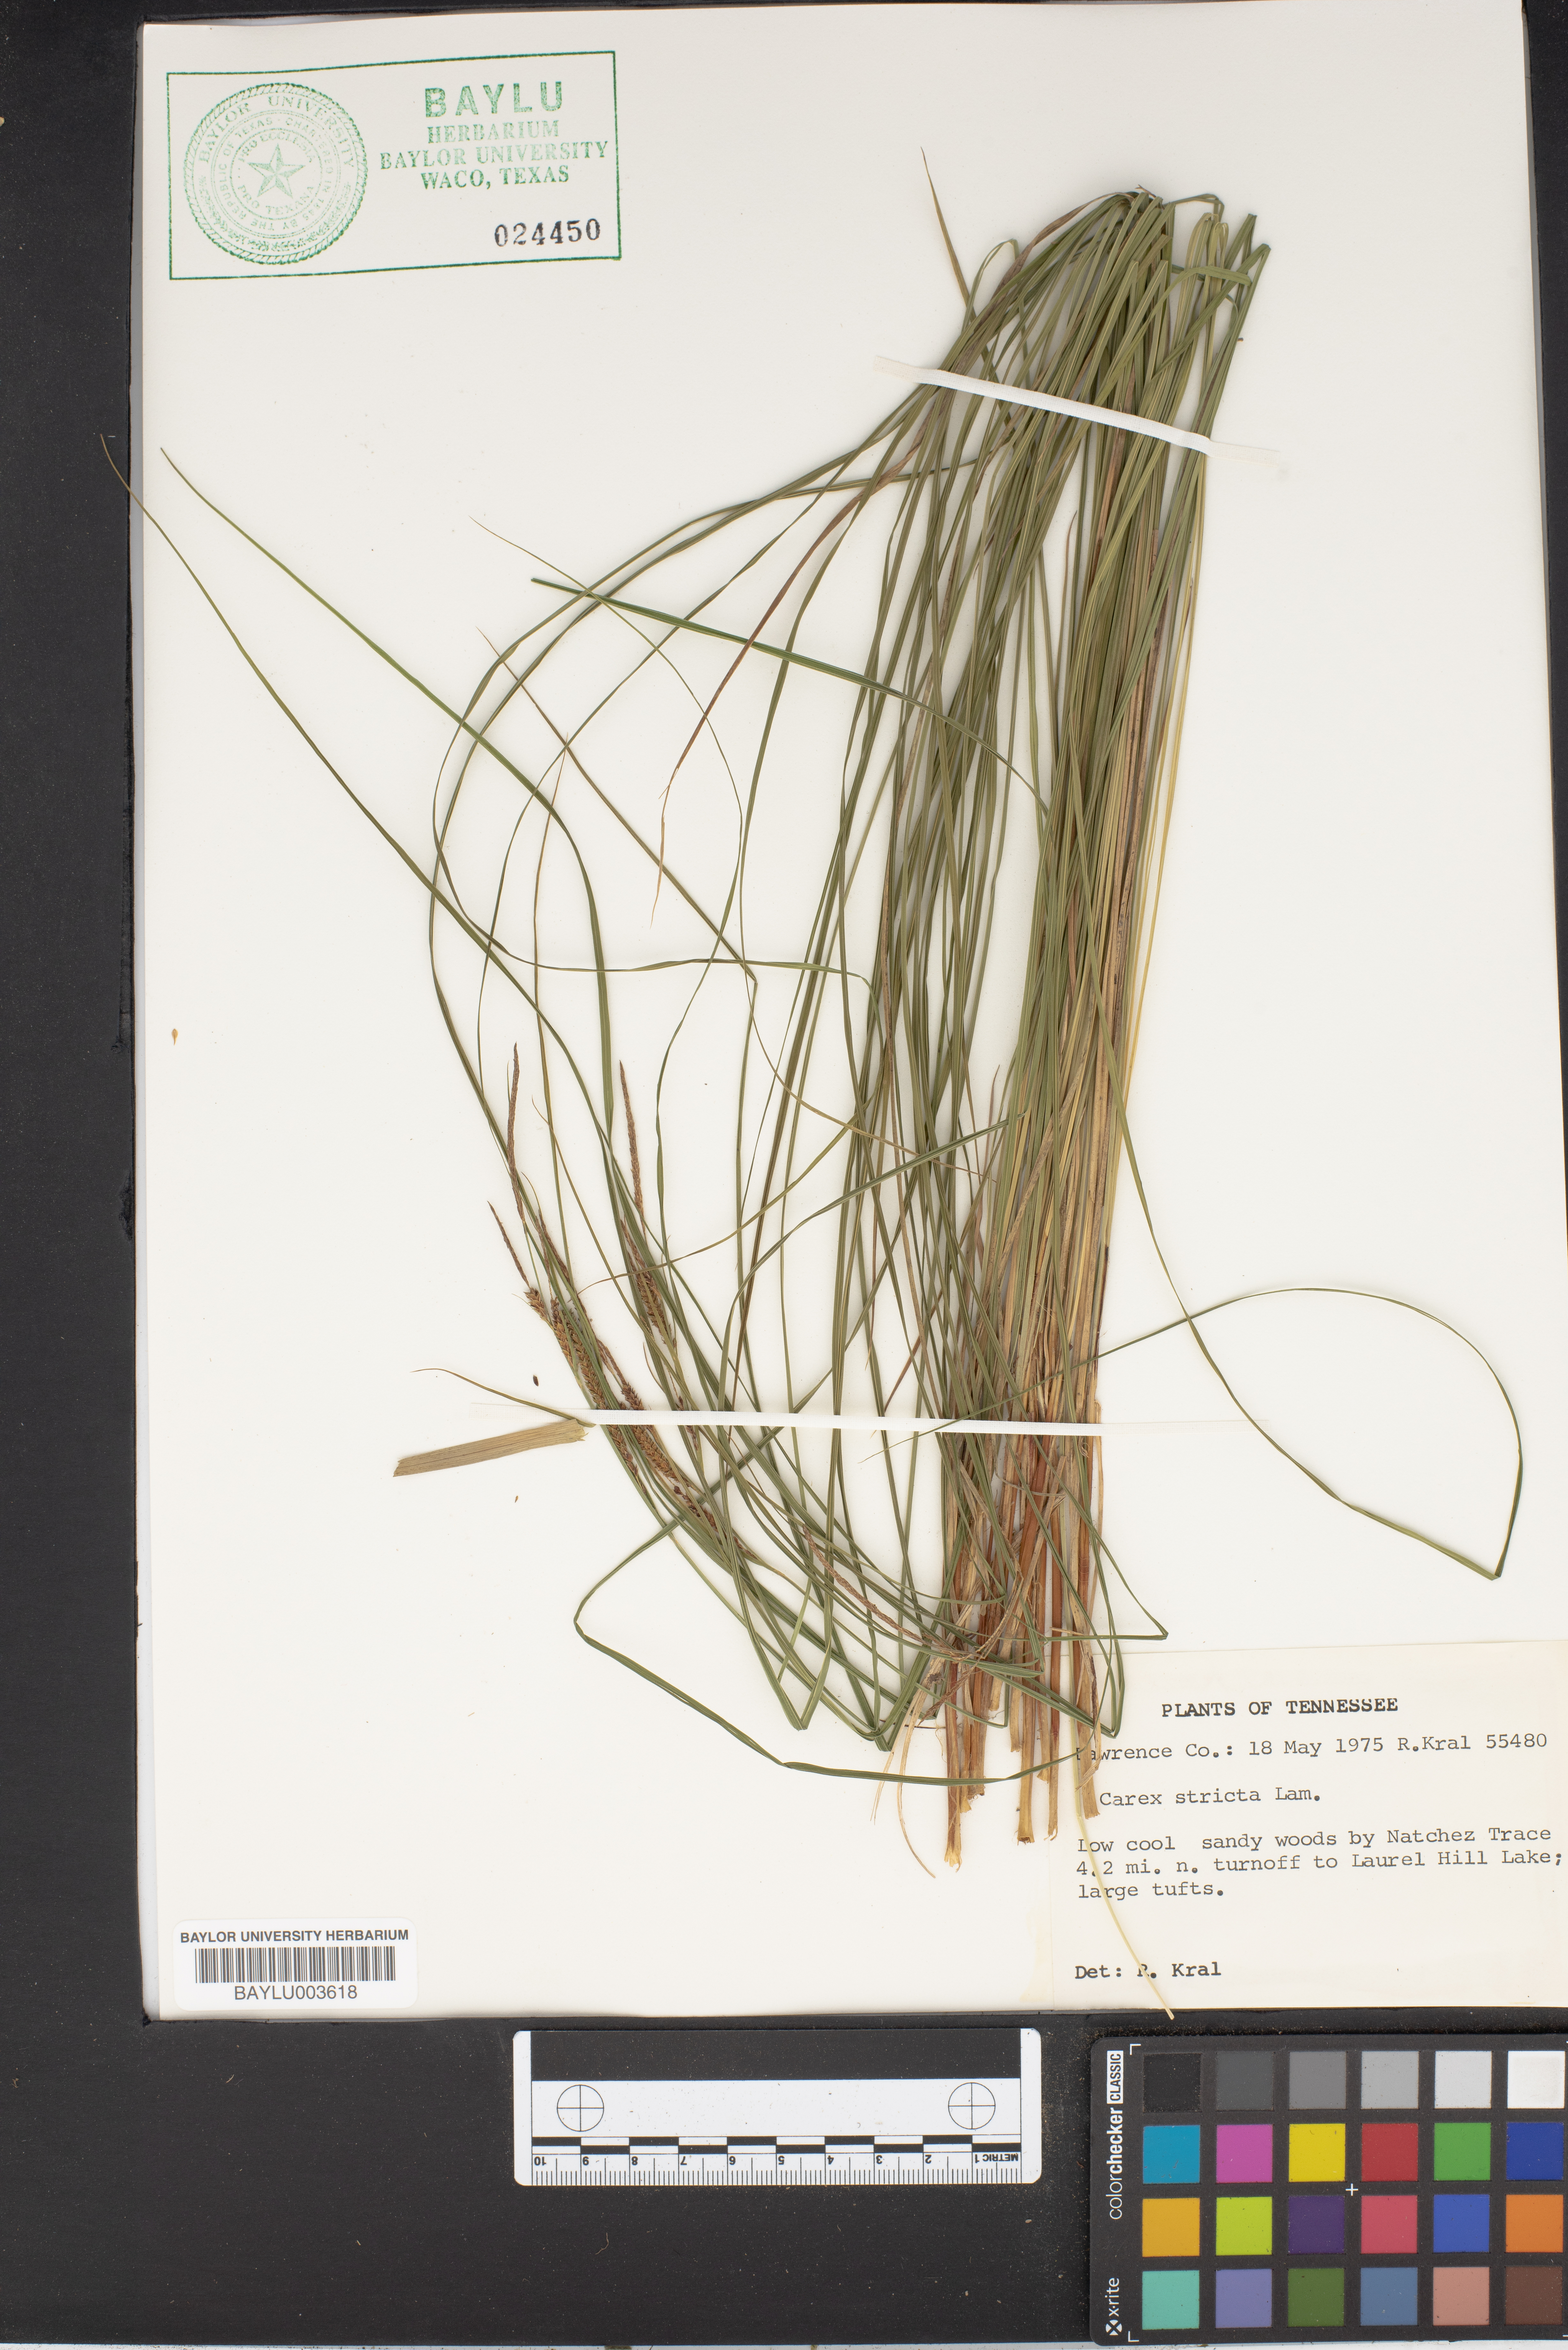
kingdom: Plantae
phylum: Tracheophyta
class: Liliopsida
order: Poales
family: Cyperaceae
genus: Carex
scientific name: Carex stricta
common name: Hummock sedge
